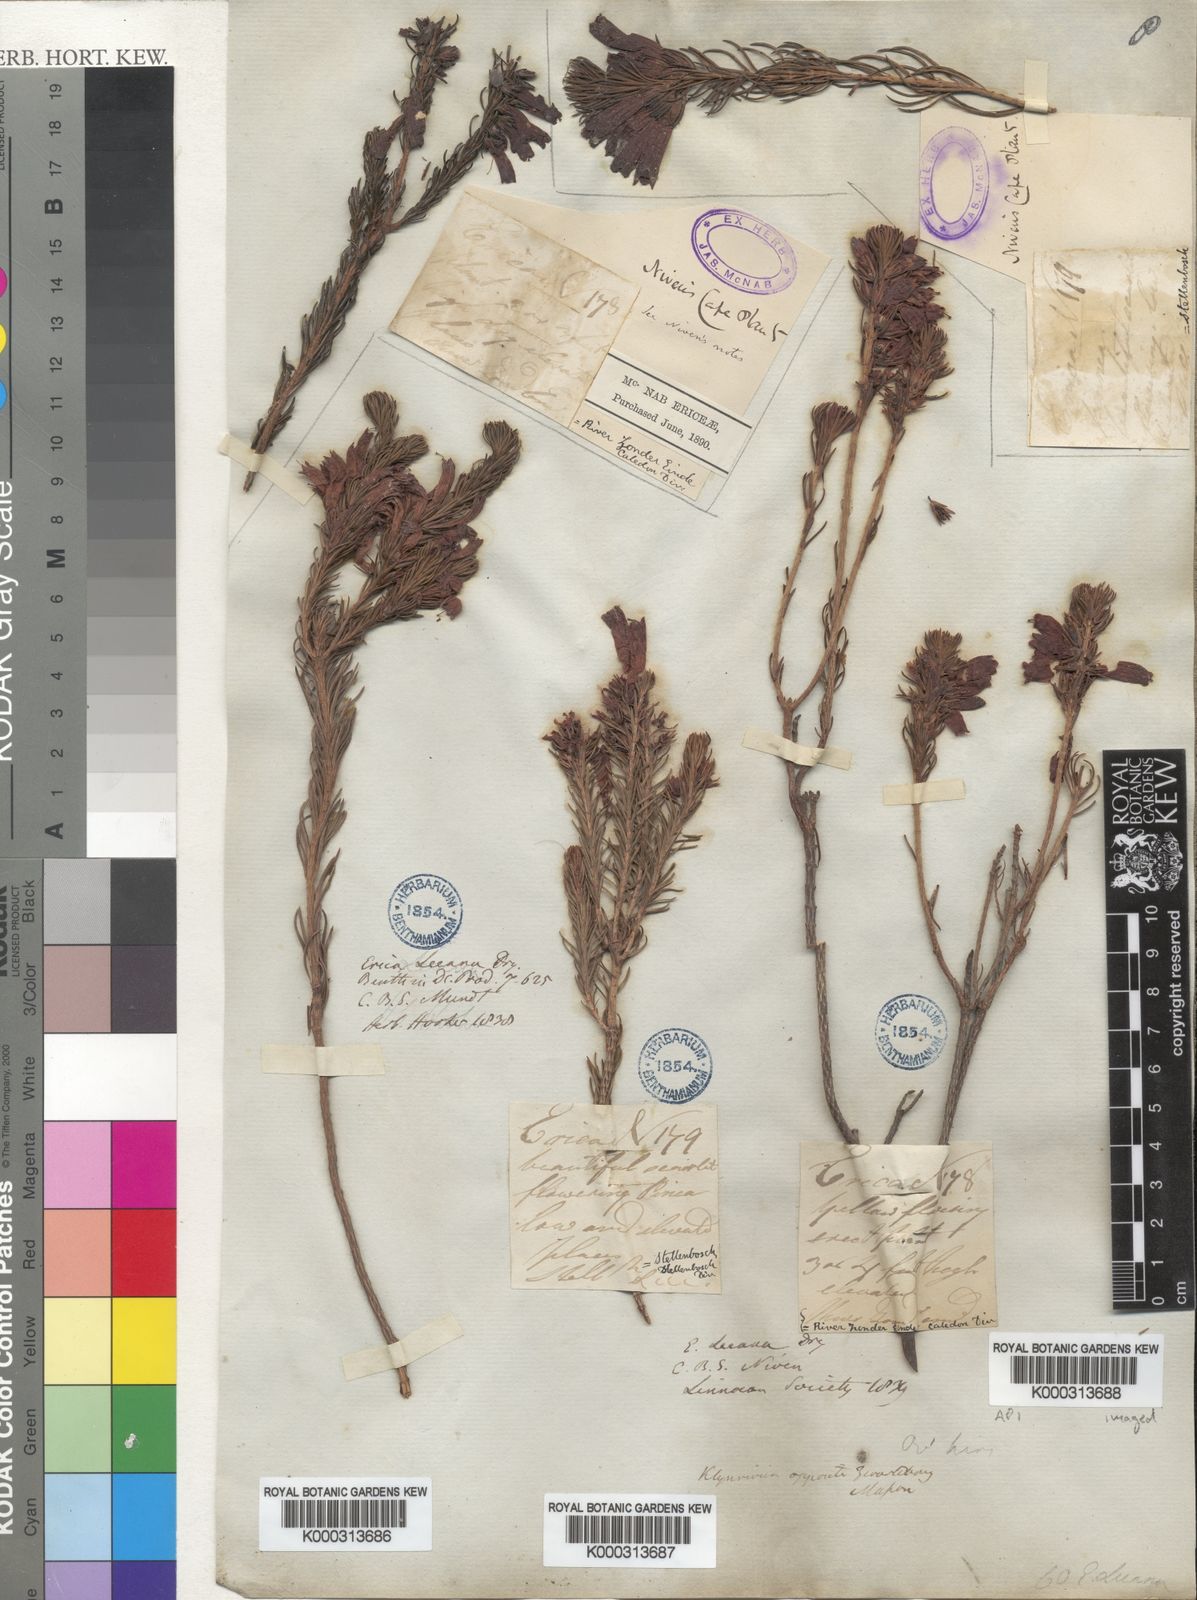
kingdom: Plantae
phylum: Tracheophyta
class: Magnoliopsida
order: Ericales
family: Ericaceae
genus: Erica
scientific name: Erica viscaria
